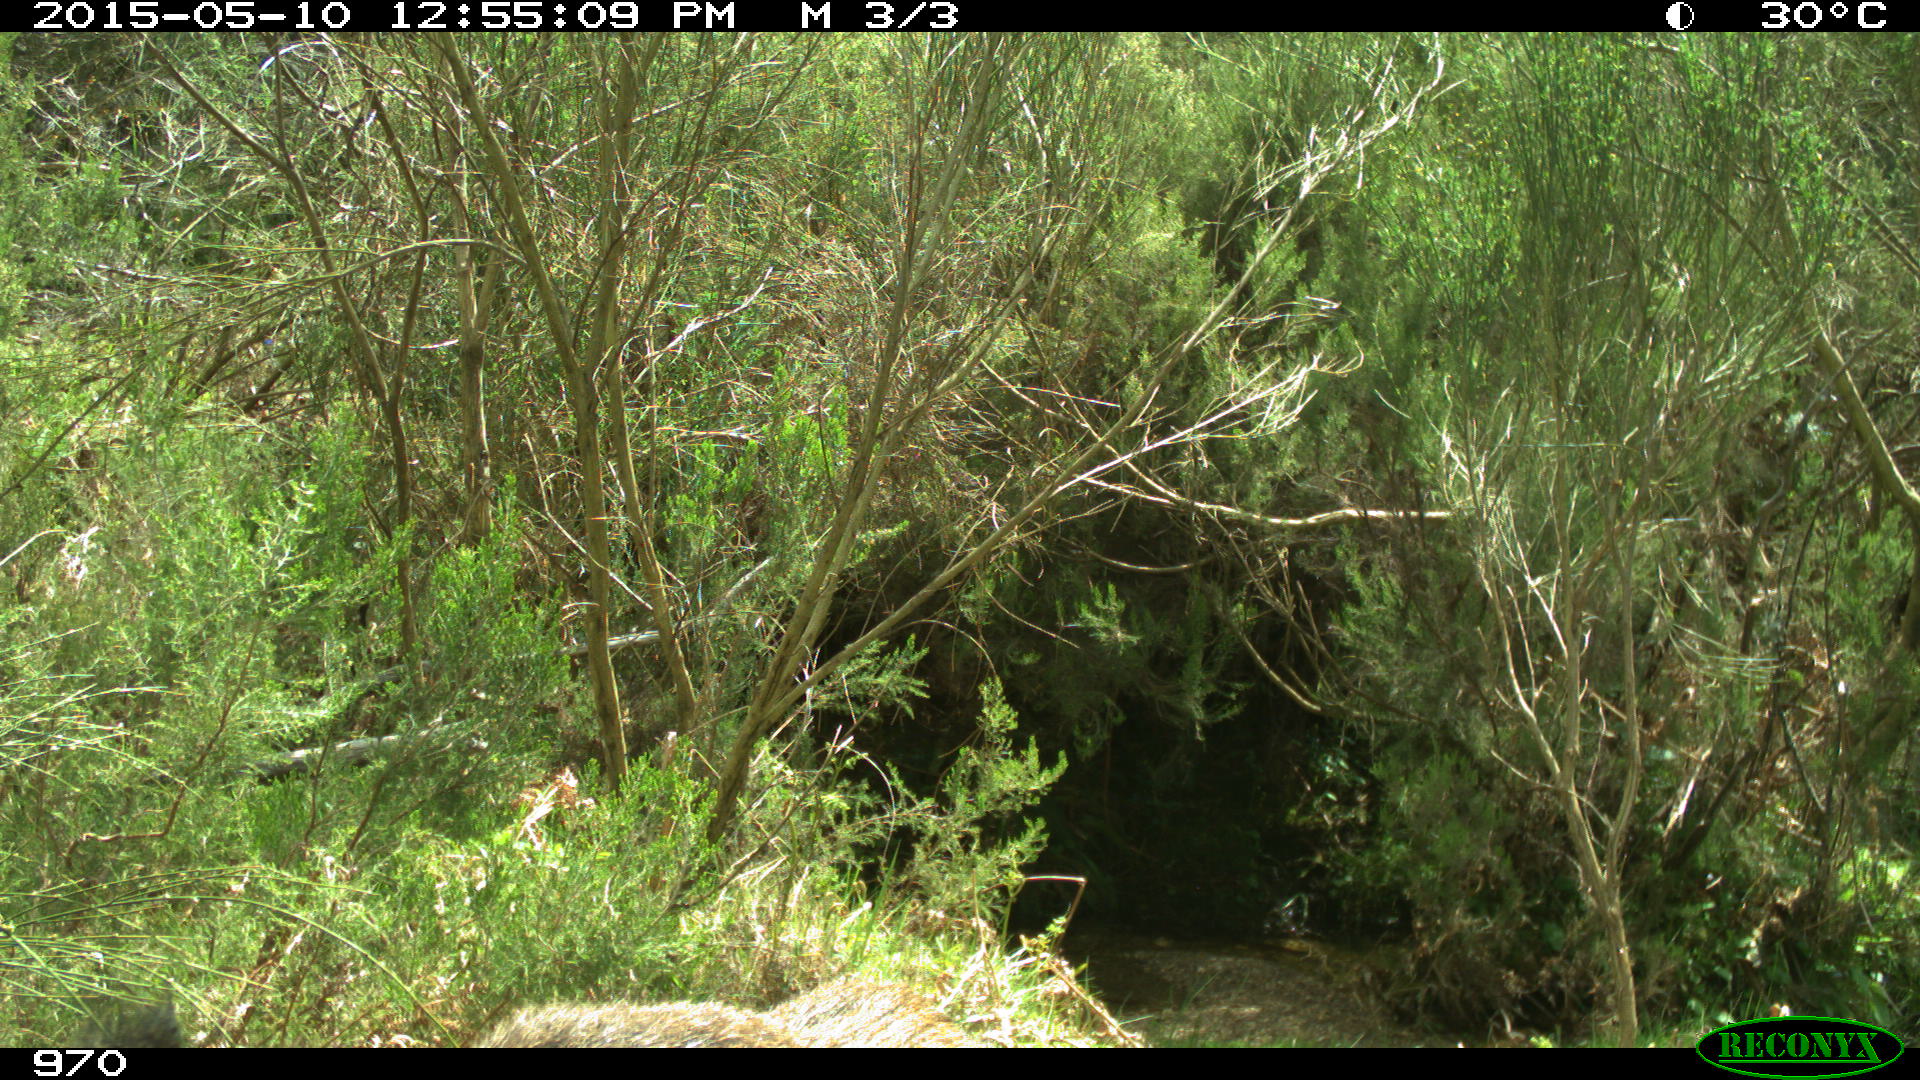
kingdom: Animalia
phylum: Chordata
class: Mammalia
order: Artiodactyla
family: Suidae
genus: Sus
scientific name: Sus scrofa
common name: Wild boar
